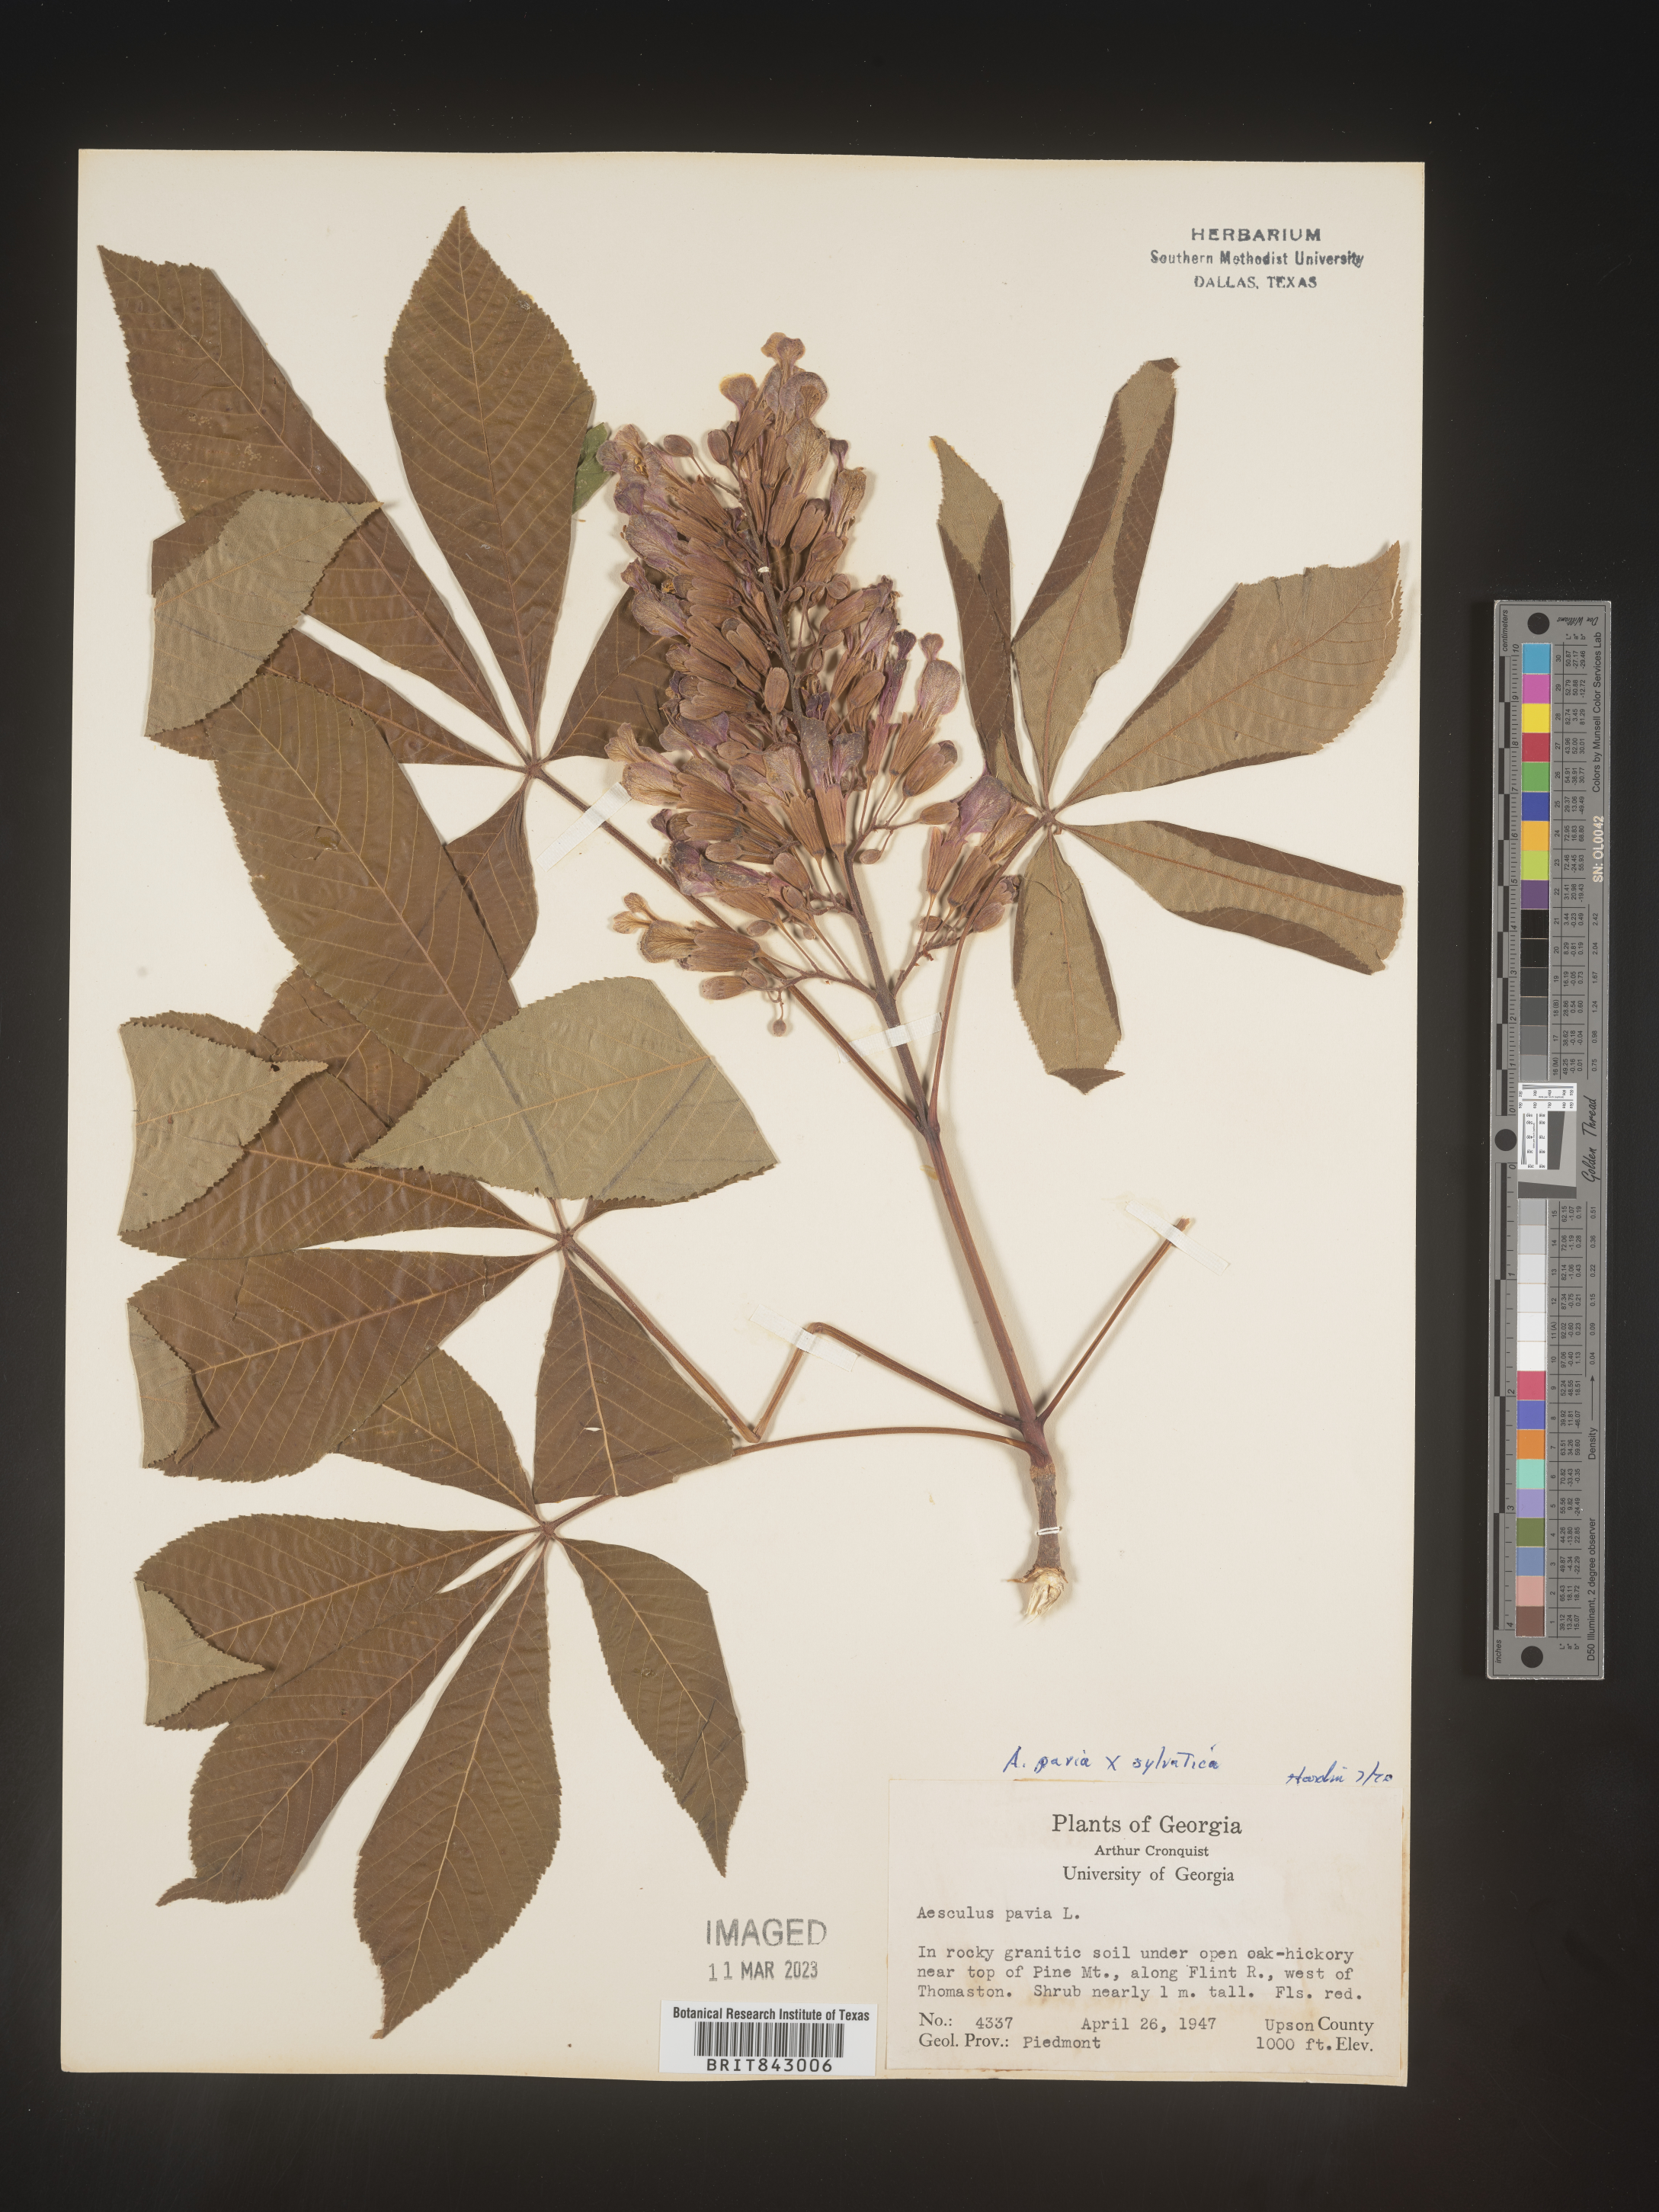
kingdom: Plantae
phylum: Tracheophyta
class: Magnoliopsida
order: Sapindales
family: Sapindaceae
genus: Aesculus
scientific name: Aesculus pavia
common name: Red buckeye
